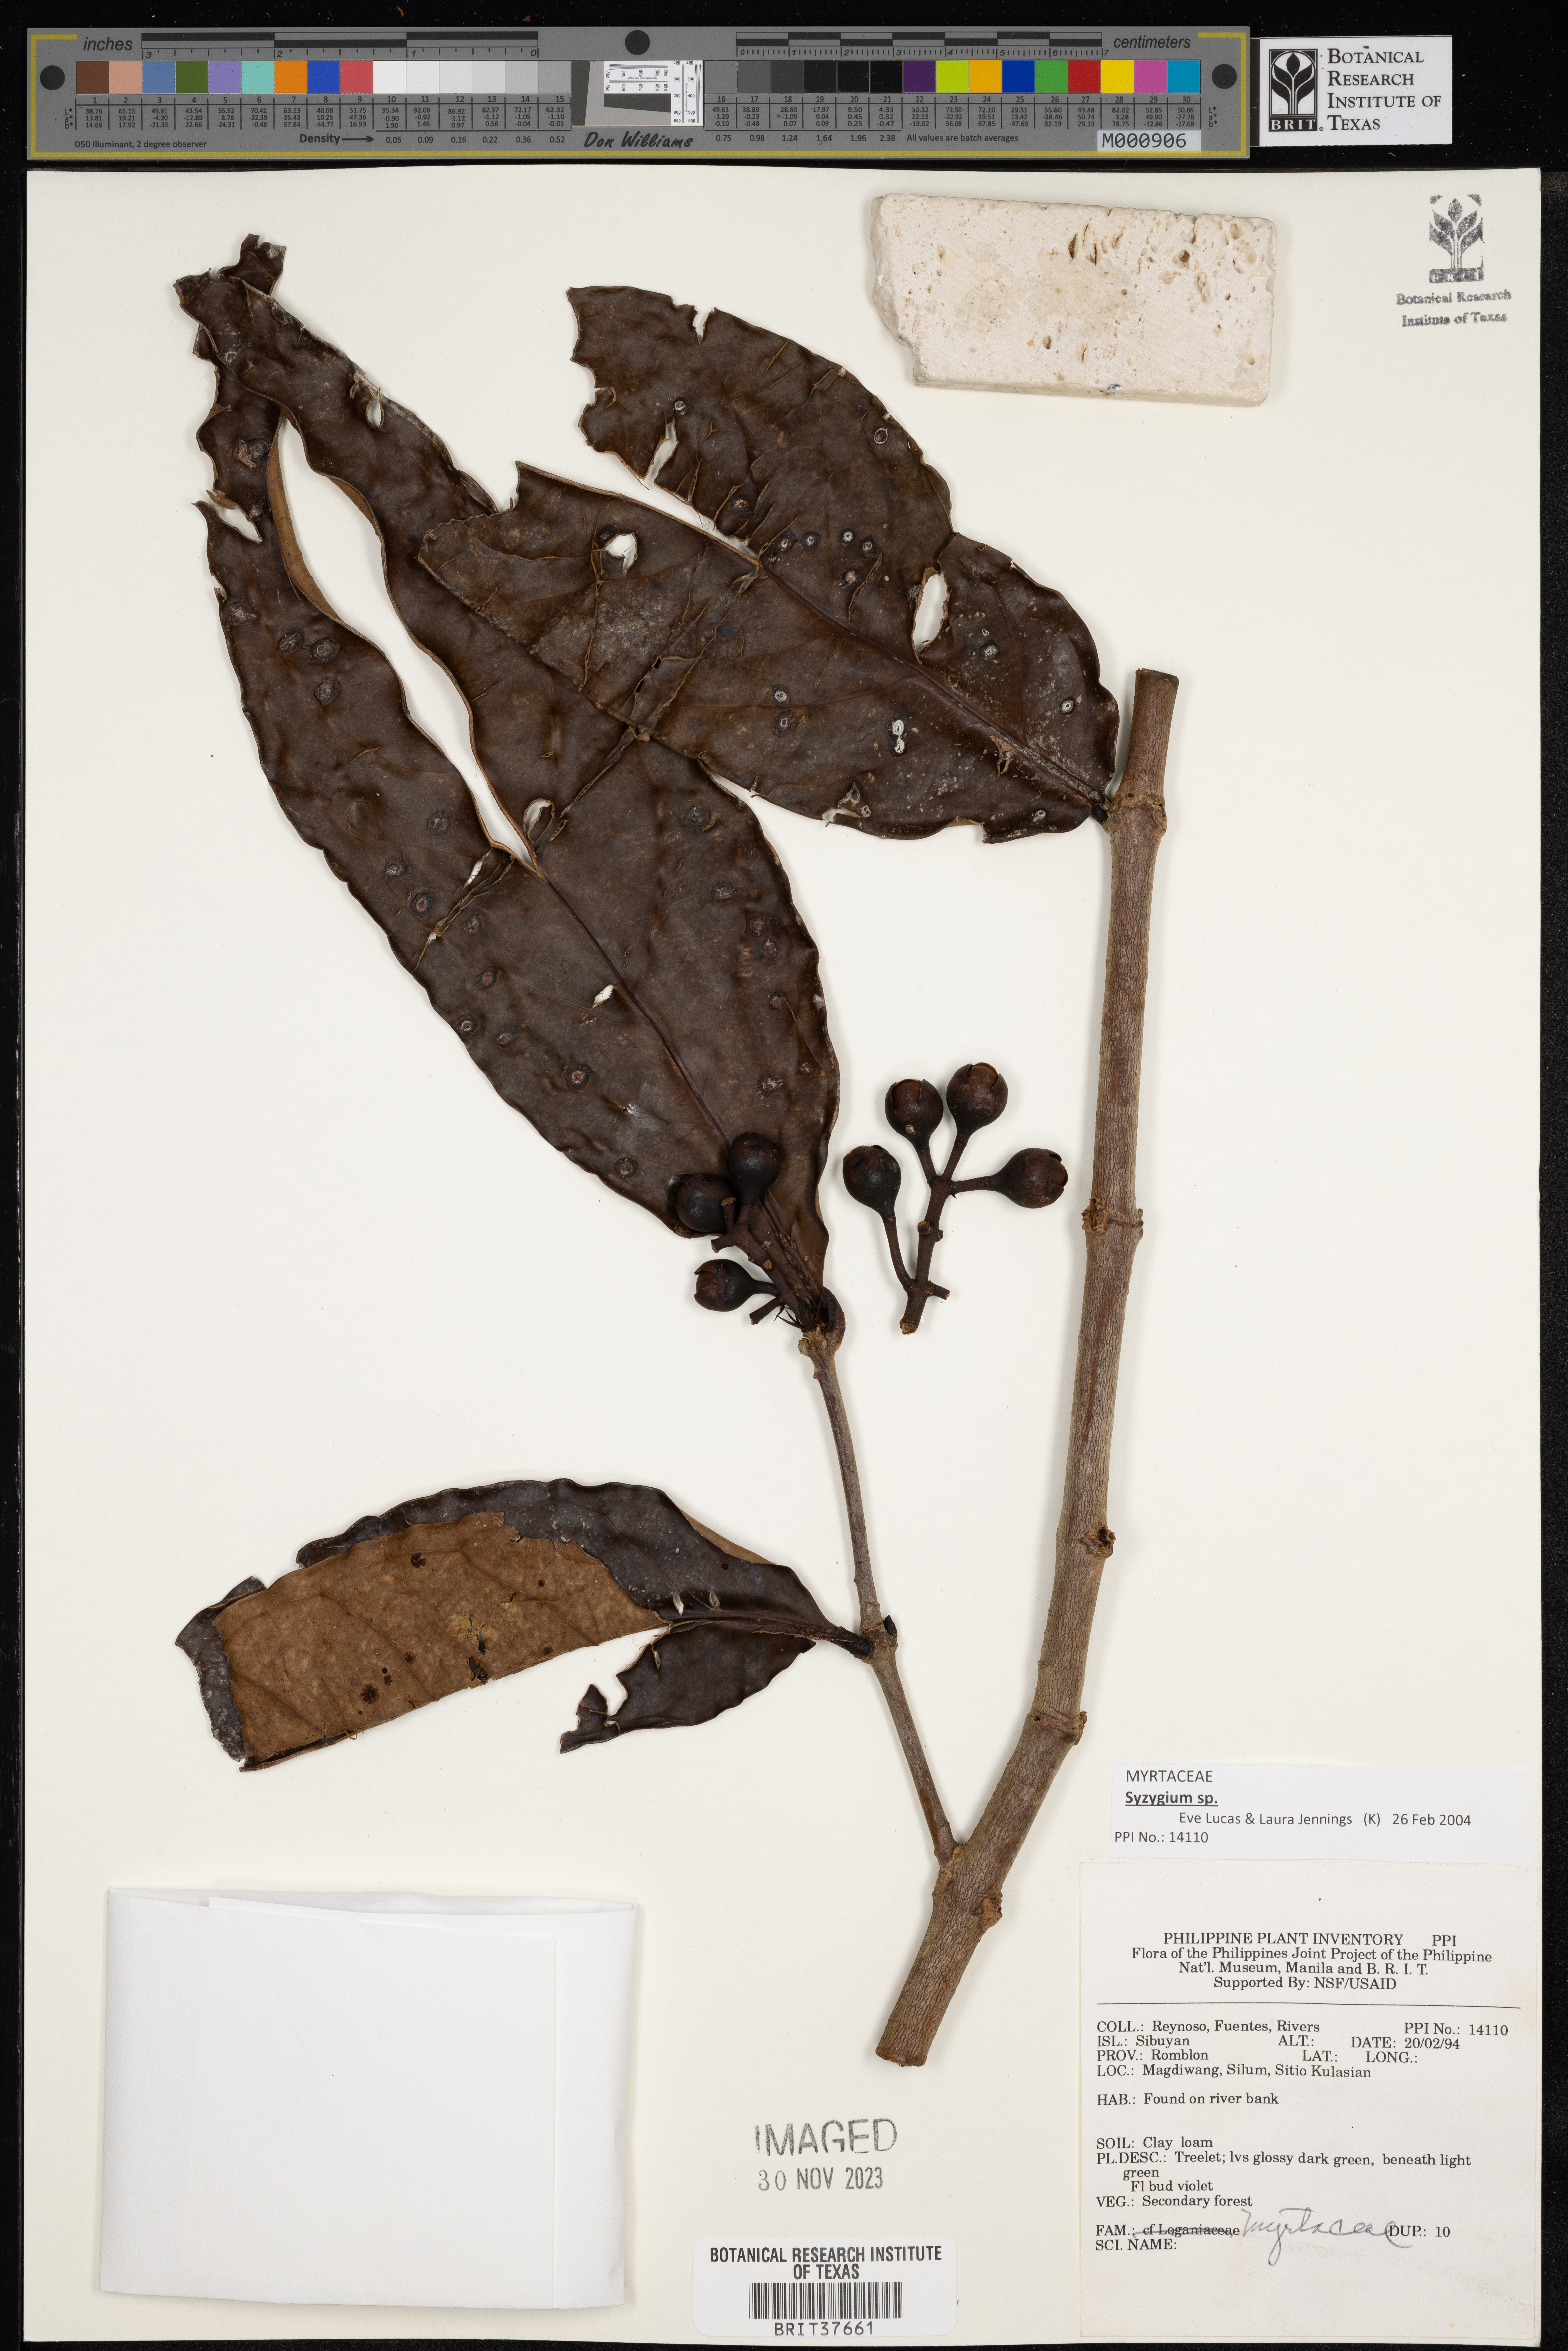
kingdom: Plantae
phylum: Tracheophyta
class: Magnoliopsida
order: Myrtales
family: Myrtaceae
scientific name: Myrtaceae
